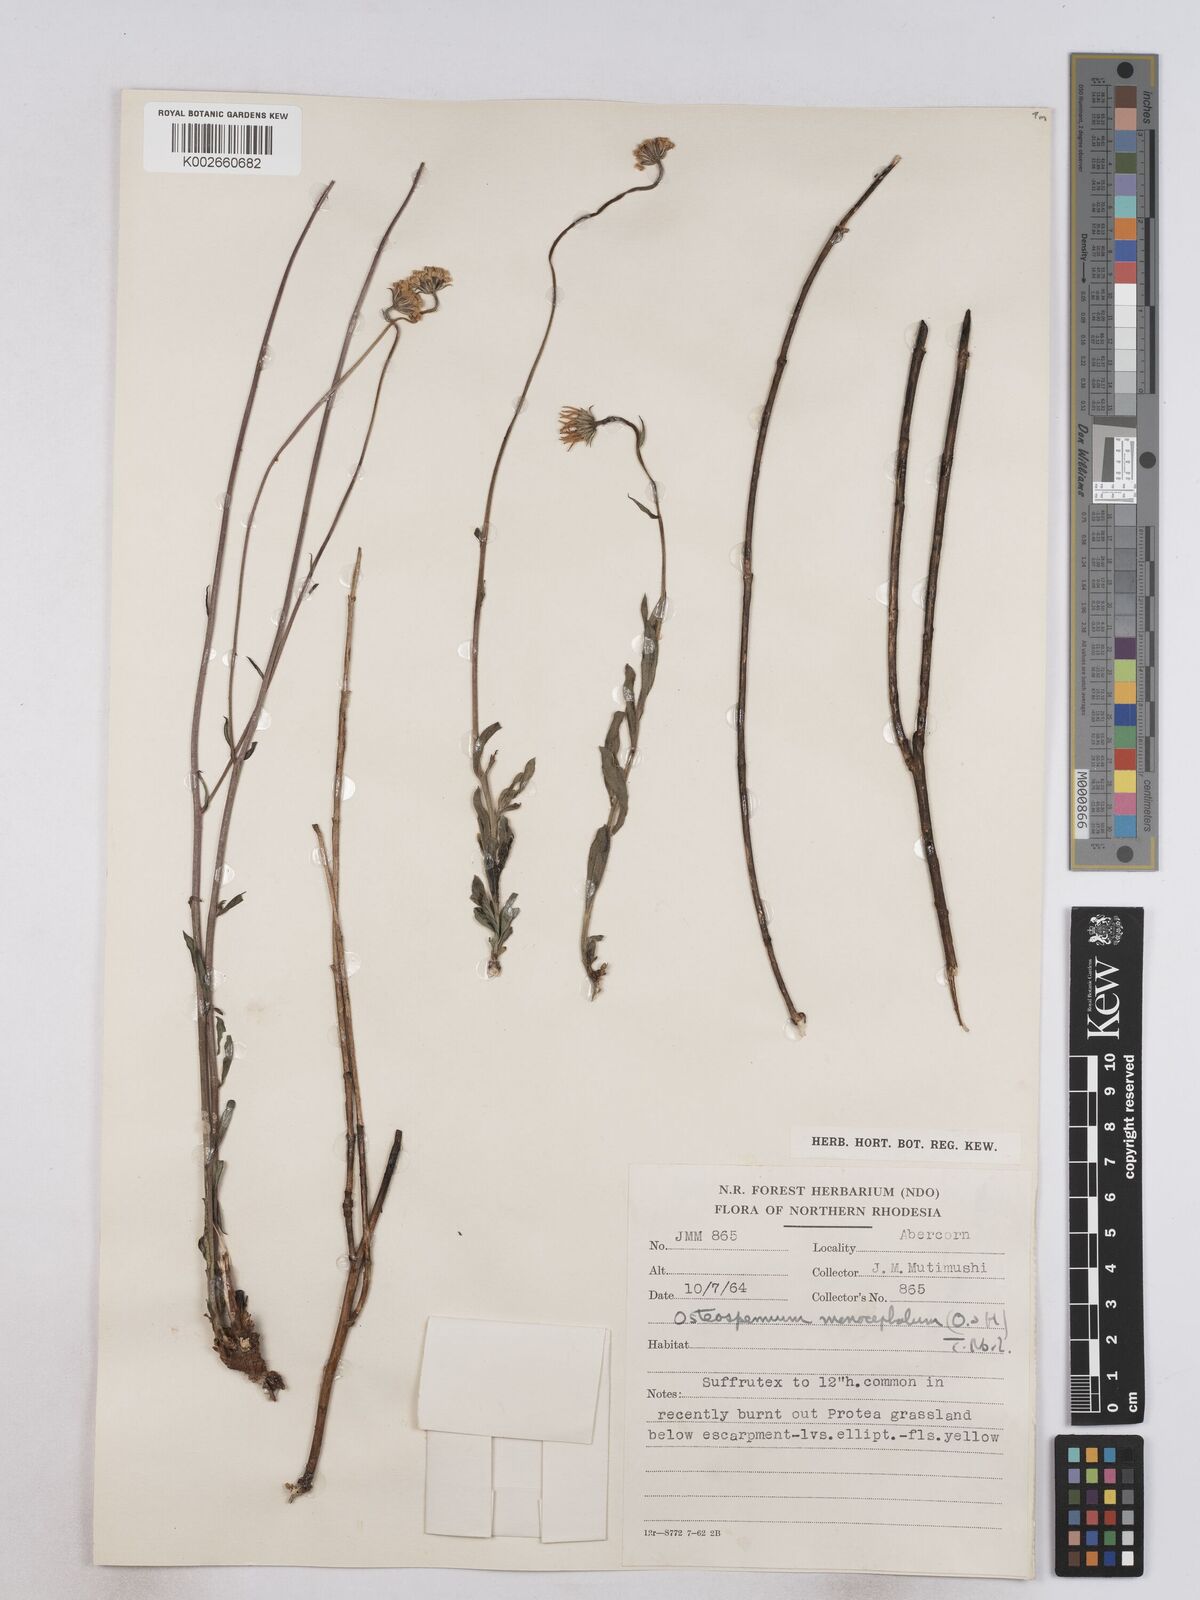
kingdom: Plantae
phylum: Tracheophyta
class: Magnoliopsida
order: Asterales
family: Asteraceae
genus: Osteospermum
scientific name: Osteospermum monocephalum
